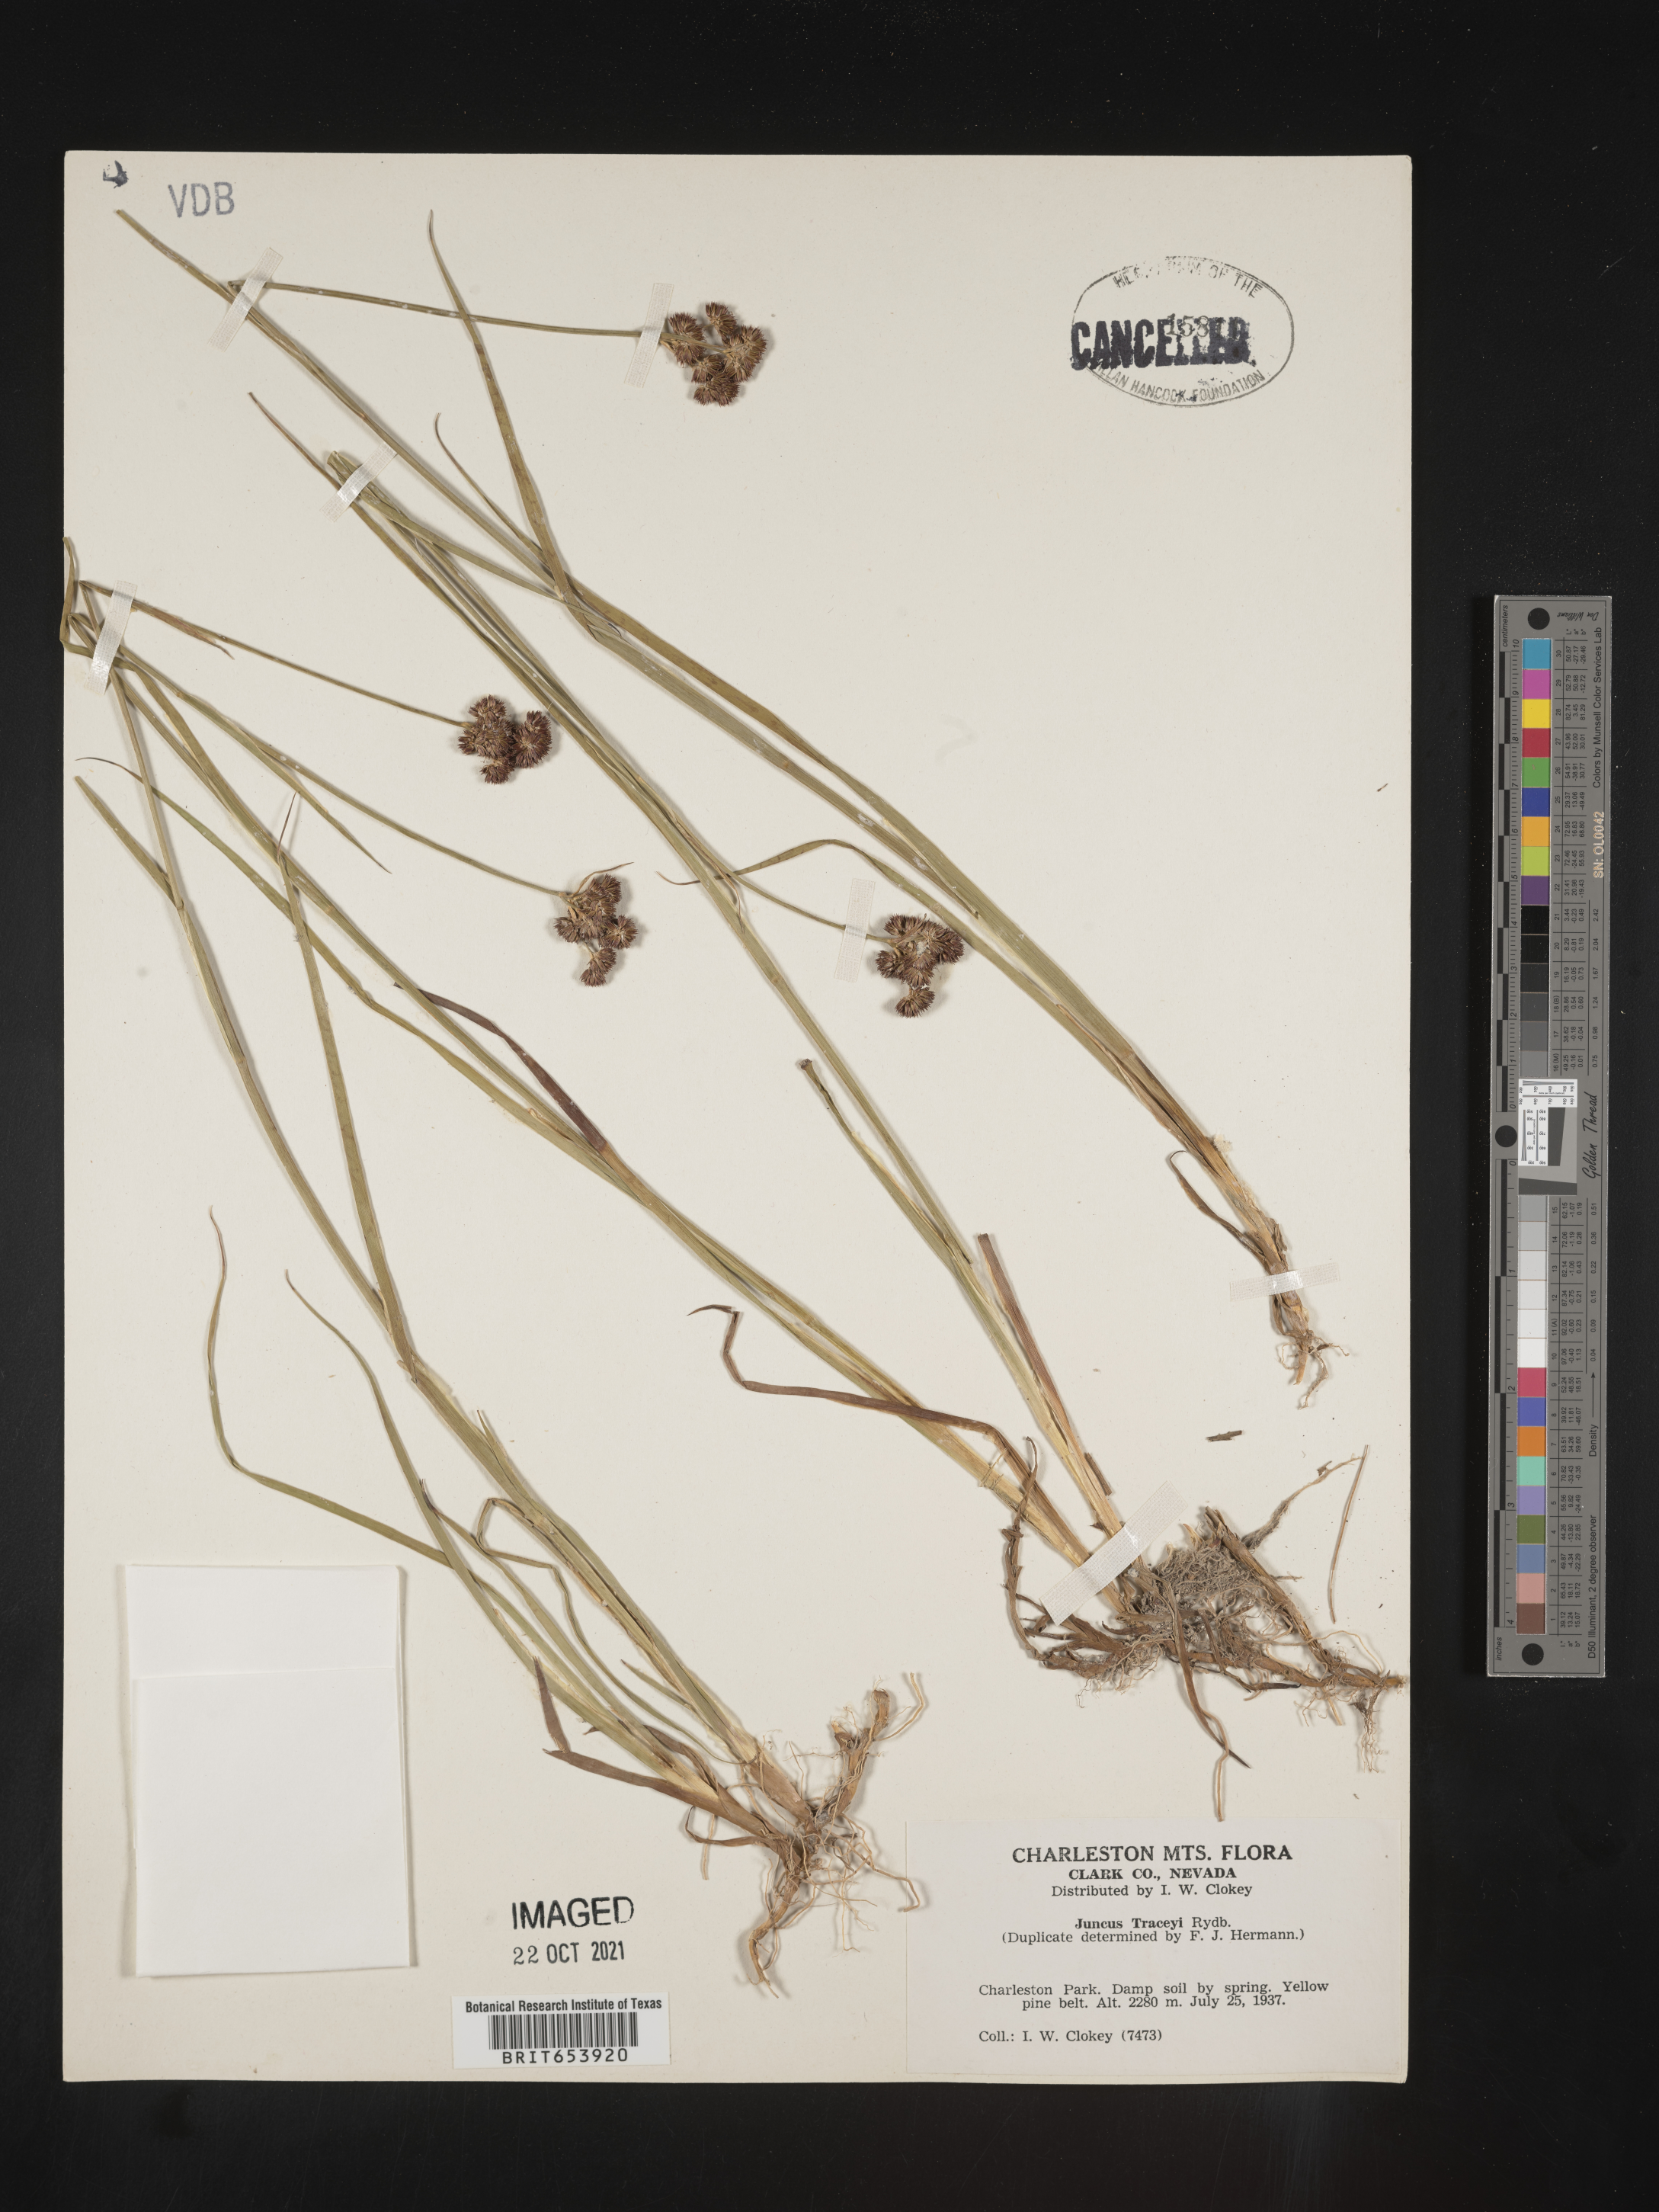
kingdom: Plantae
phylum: Tracheophyta
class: Liliopsida
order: Poales
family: Juncaceae
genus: Juncus
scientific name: Juncus tracyi
